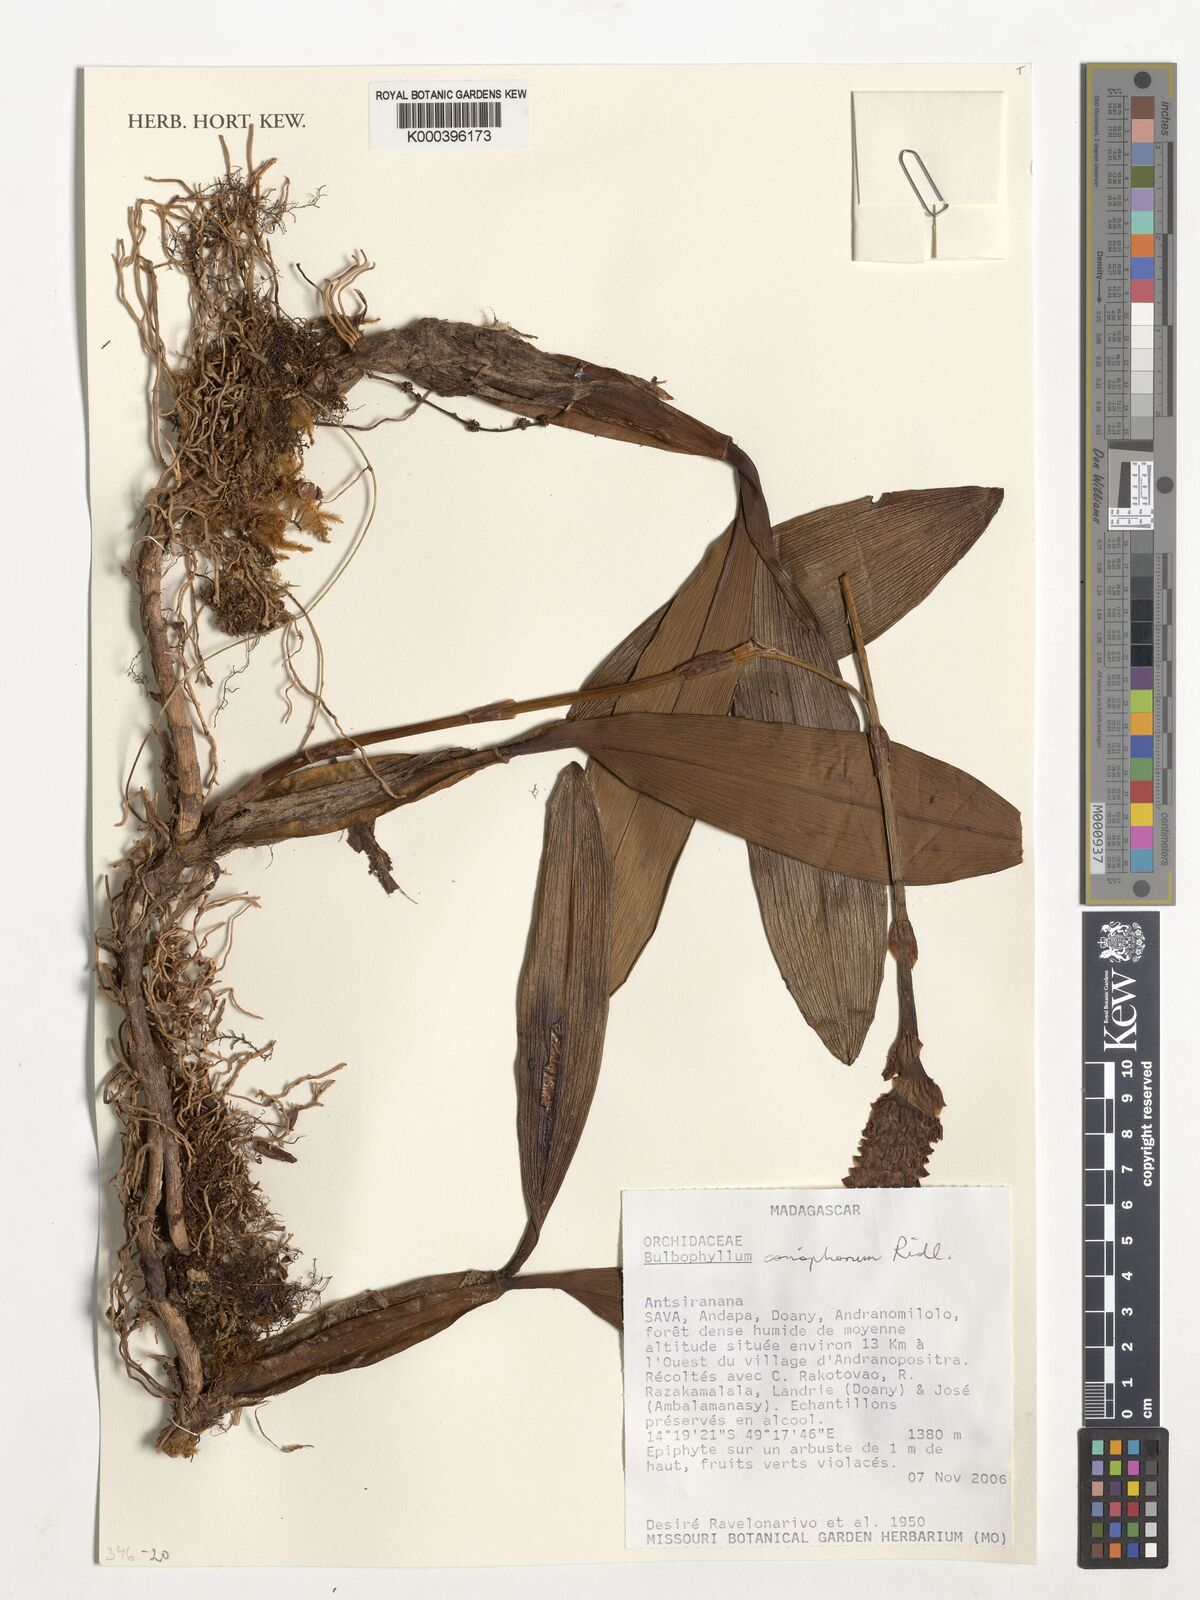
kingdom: Plantae
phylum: Tracheophyta
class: Liliopsida
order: Asparagales
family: Orchidaceae
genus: Bulbophyllum
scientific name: Bulbophyllum coriophorum
